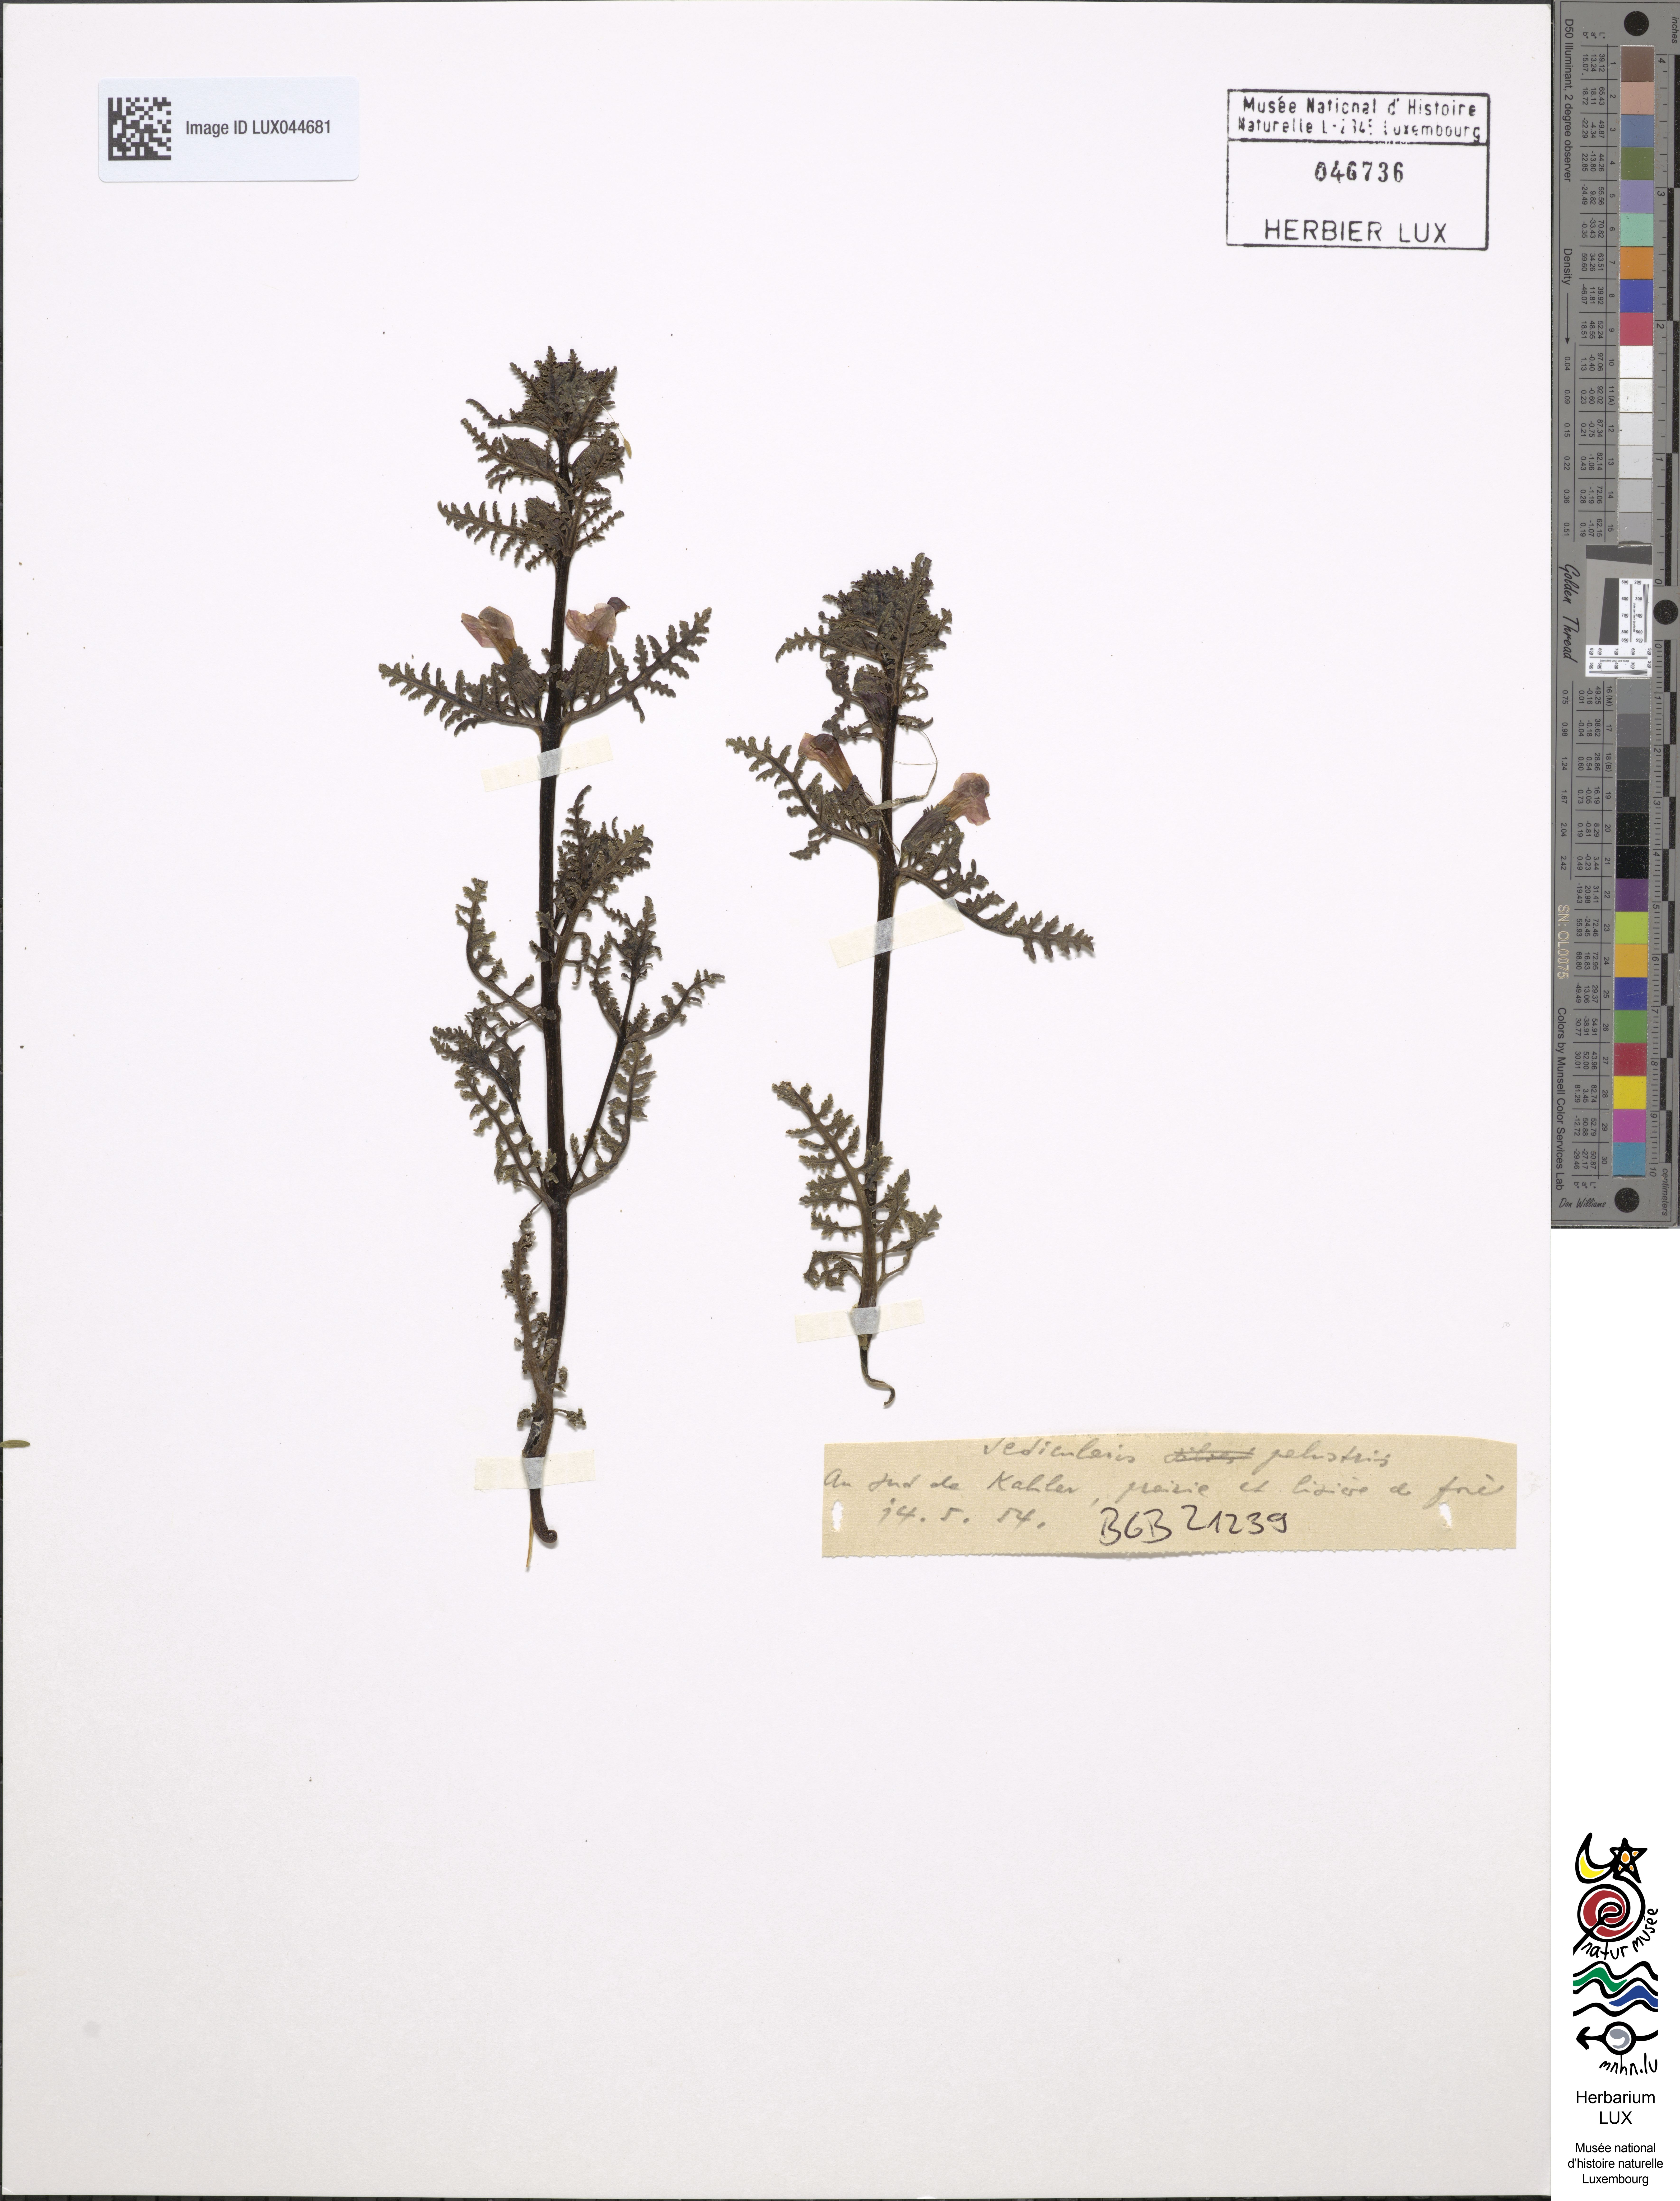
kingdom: Plantae
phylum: Tracheophyta
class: Magnoliopsida
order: Lamiales
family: Orobanchaceae
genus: Pedicularis
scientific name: Pedicularis palustris
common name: Marsh lousewort
